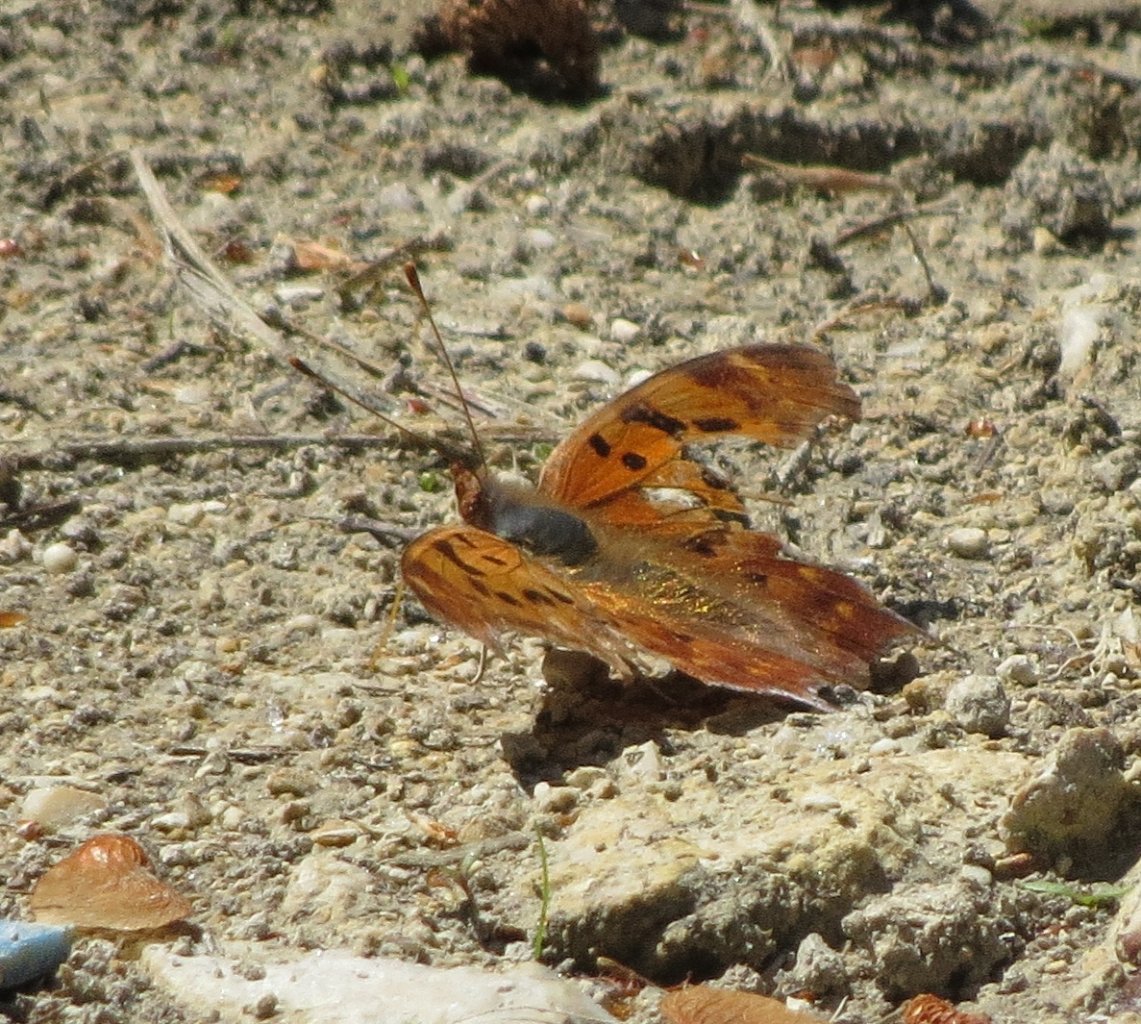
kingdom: Animalia
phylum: Arthropoda
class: Insecta
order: Lepidoptera
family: Nymphalidae
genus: Polygonia
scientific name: Polygonia interrogationis
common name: Question Mark
